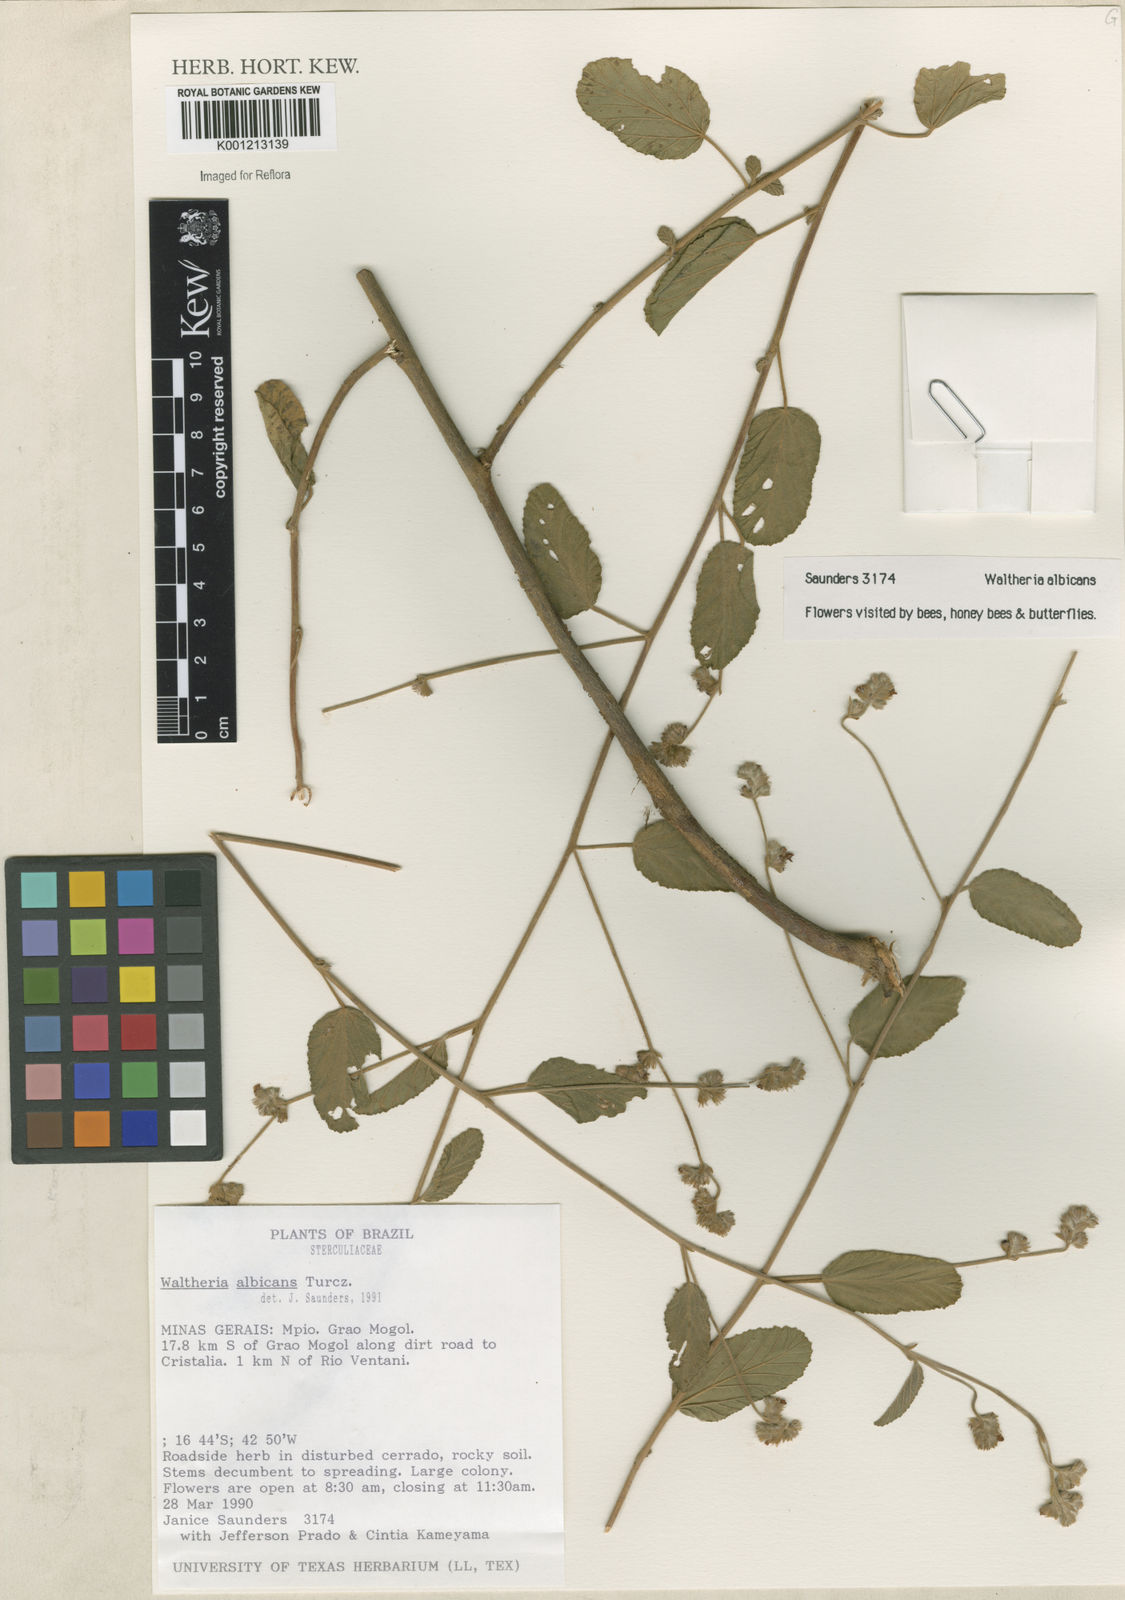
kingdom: Plantae
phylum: Tracheophyta
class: Magnoliopsida
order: Malvales
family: Malvaceae
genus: Waltheria
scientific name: Waltheria albicans
